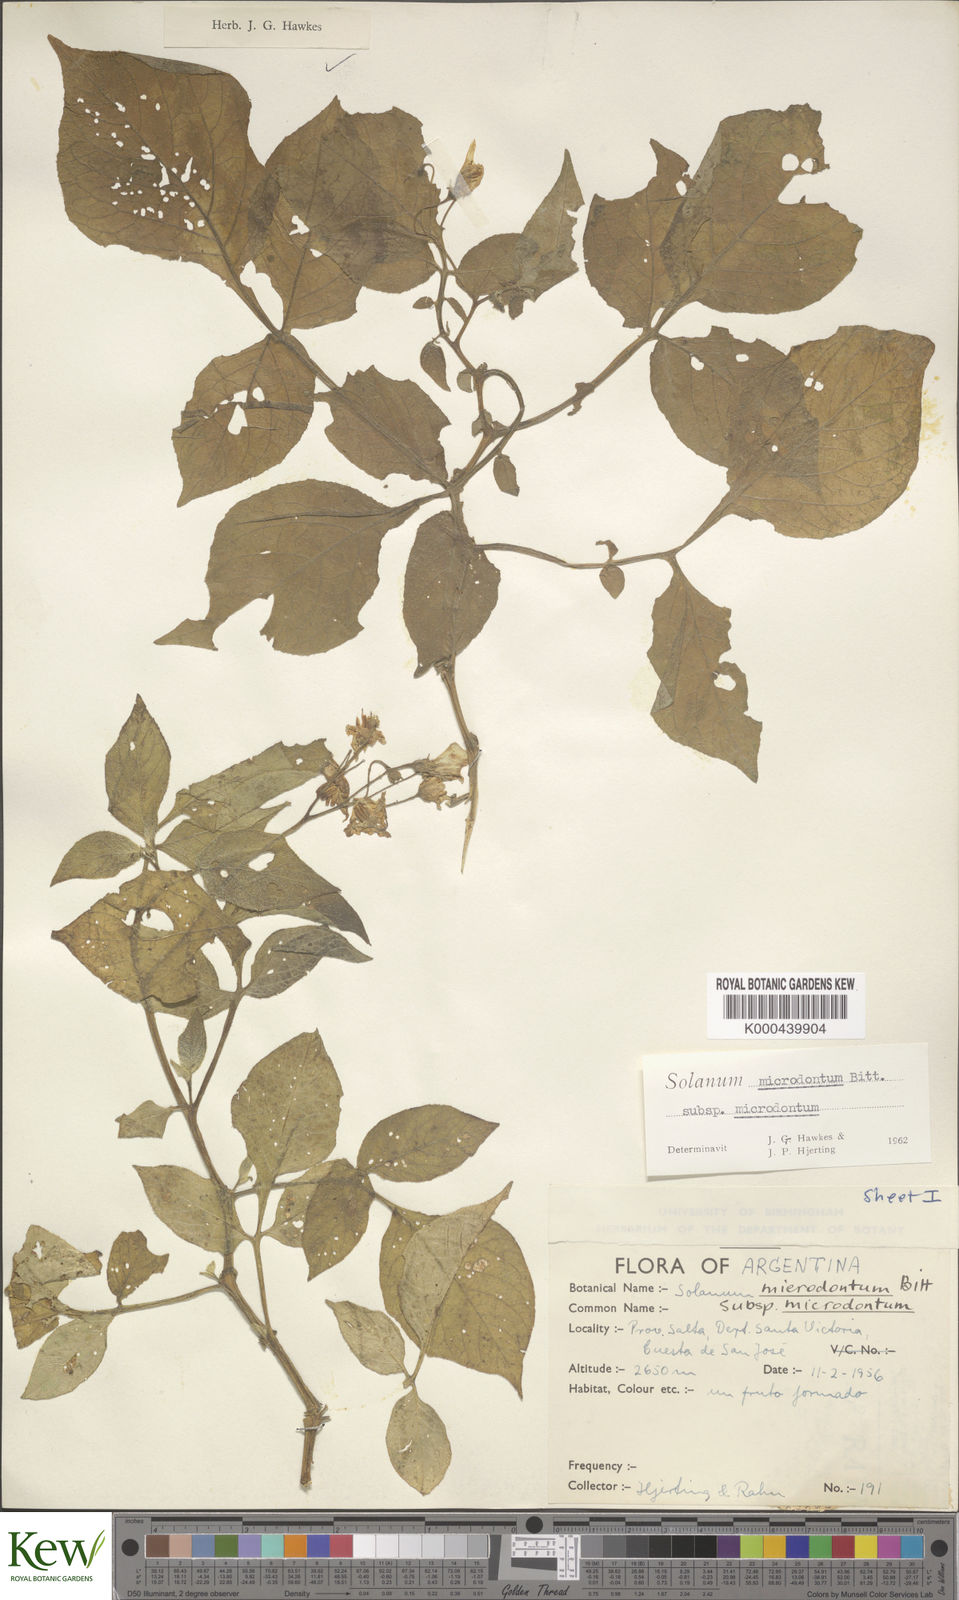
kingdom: Plantae
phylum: Tracheophyta
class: Magnoliopsida
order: Solanales
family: Solanaceae
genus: Solanum
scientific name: Solanum microdontum
